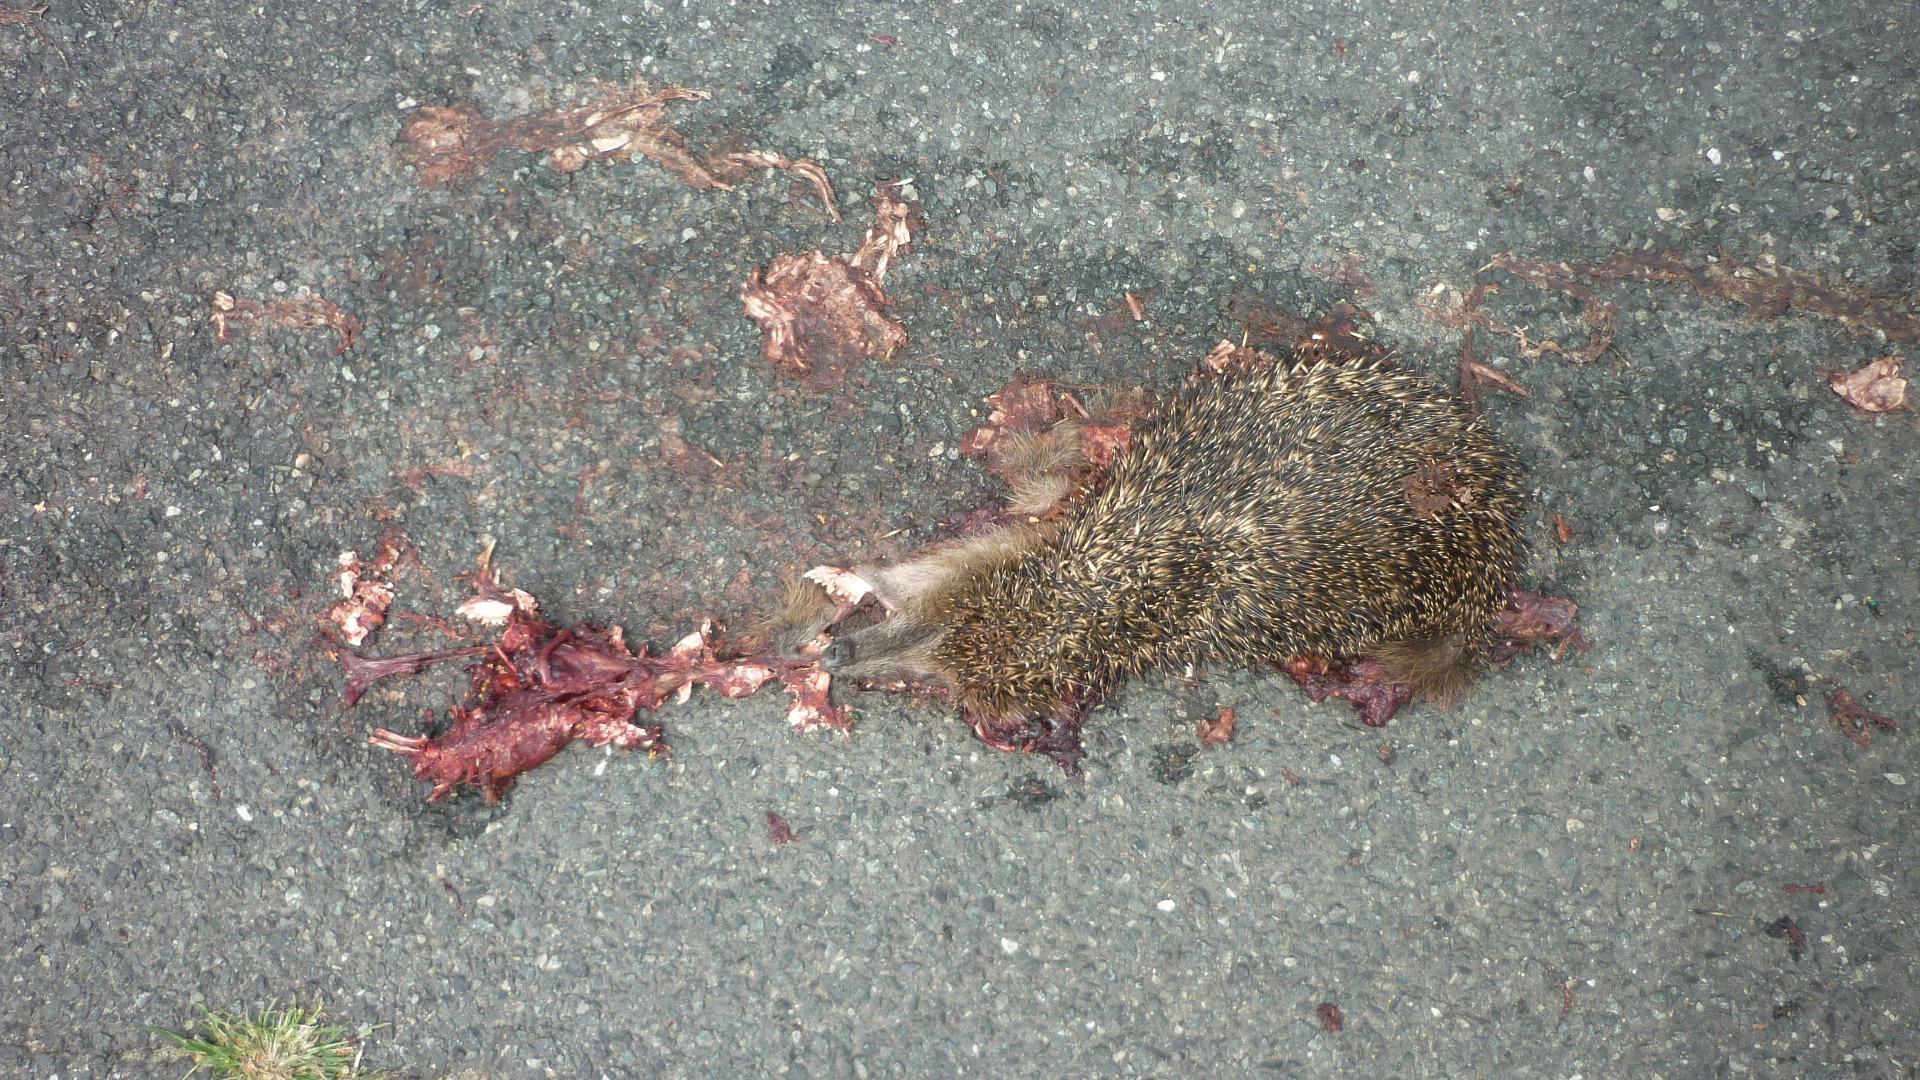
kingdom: Animalia
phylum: Chordata
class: Mammalia
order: Erinaceomorpha
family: Erinaceidae
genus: Erinaceus
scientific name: Erinaceus
